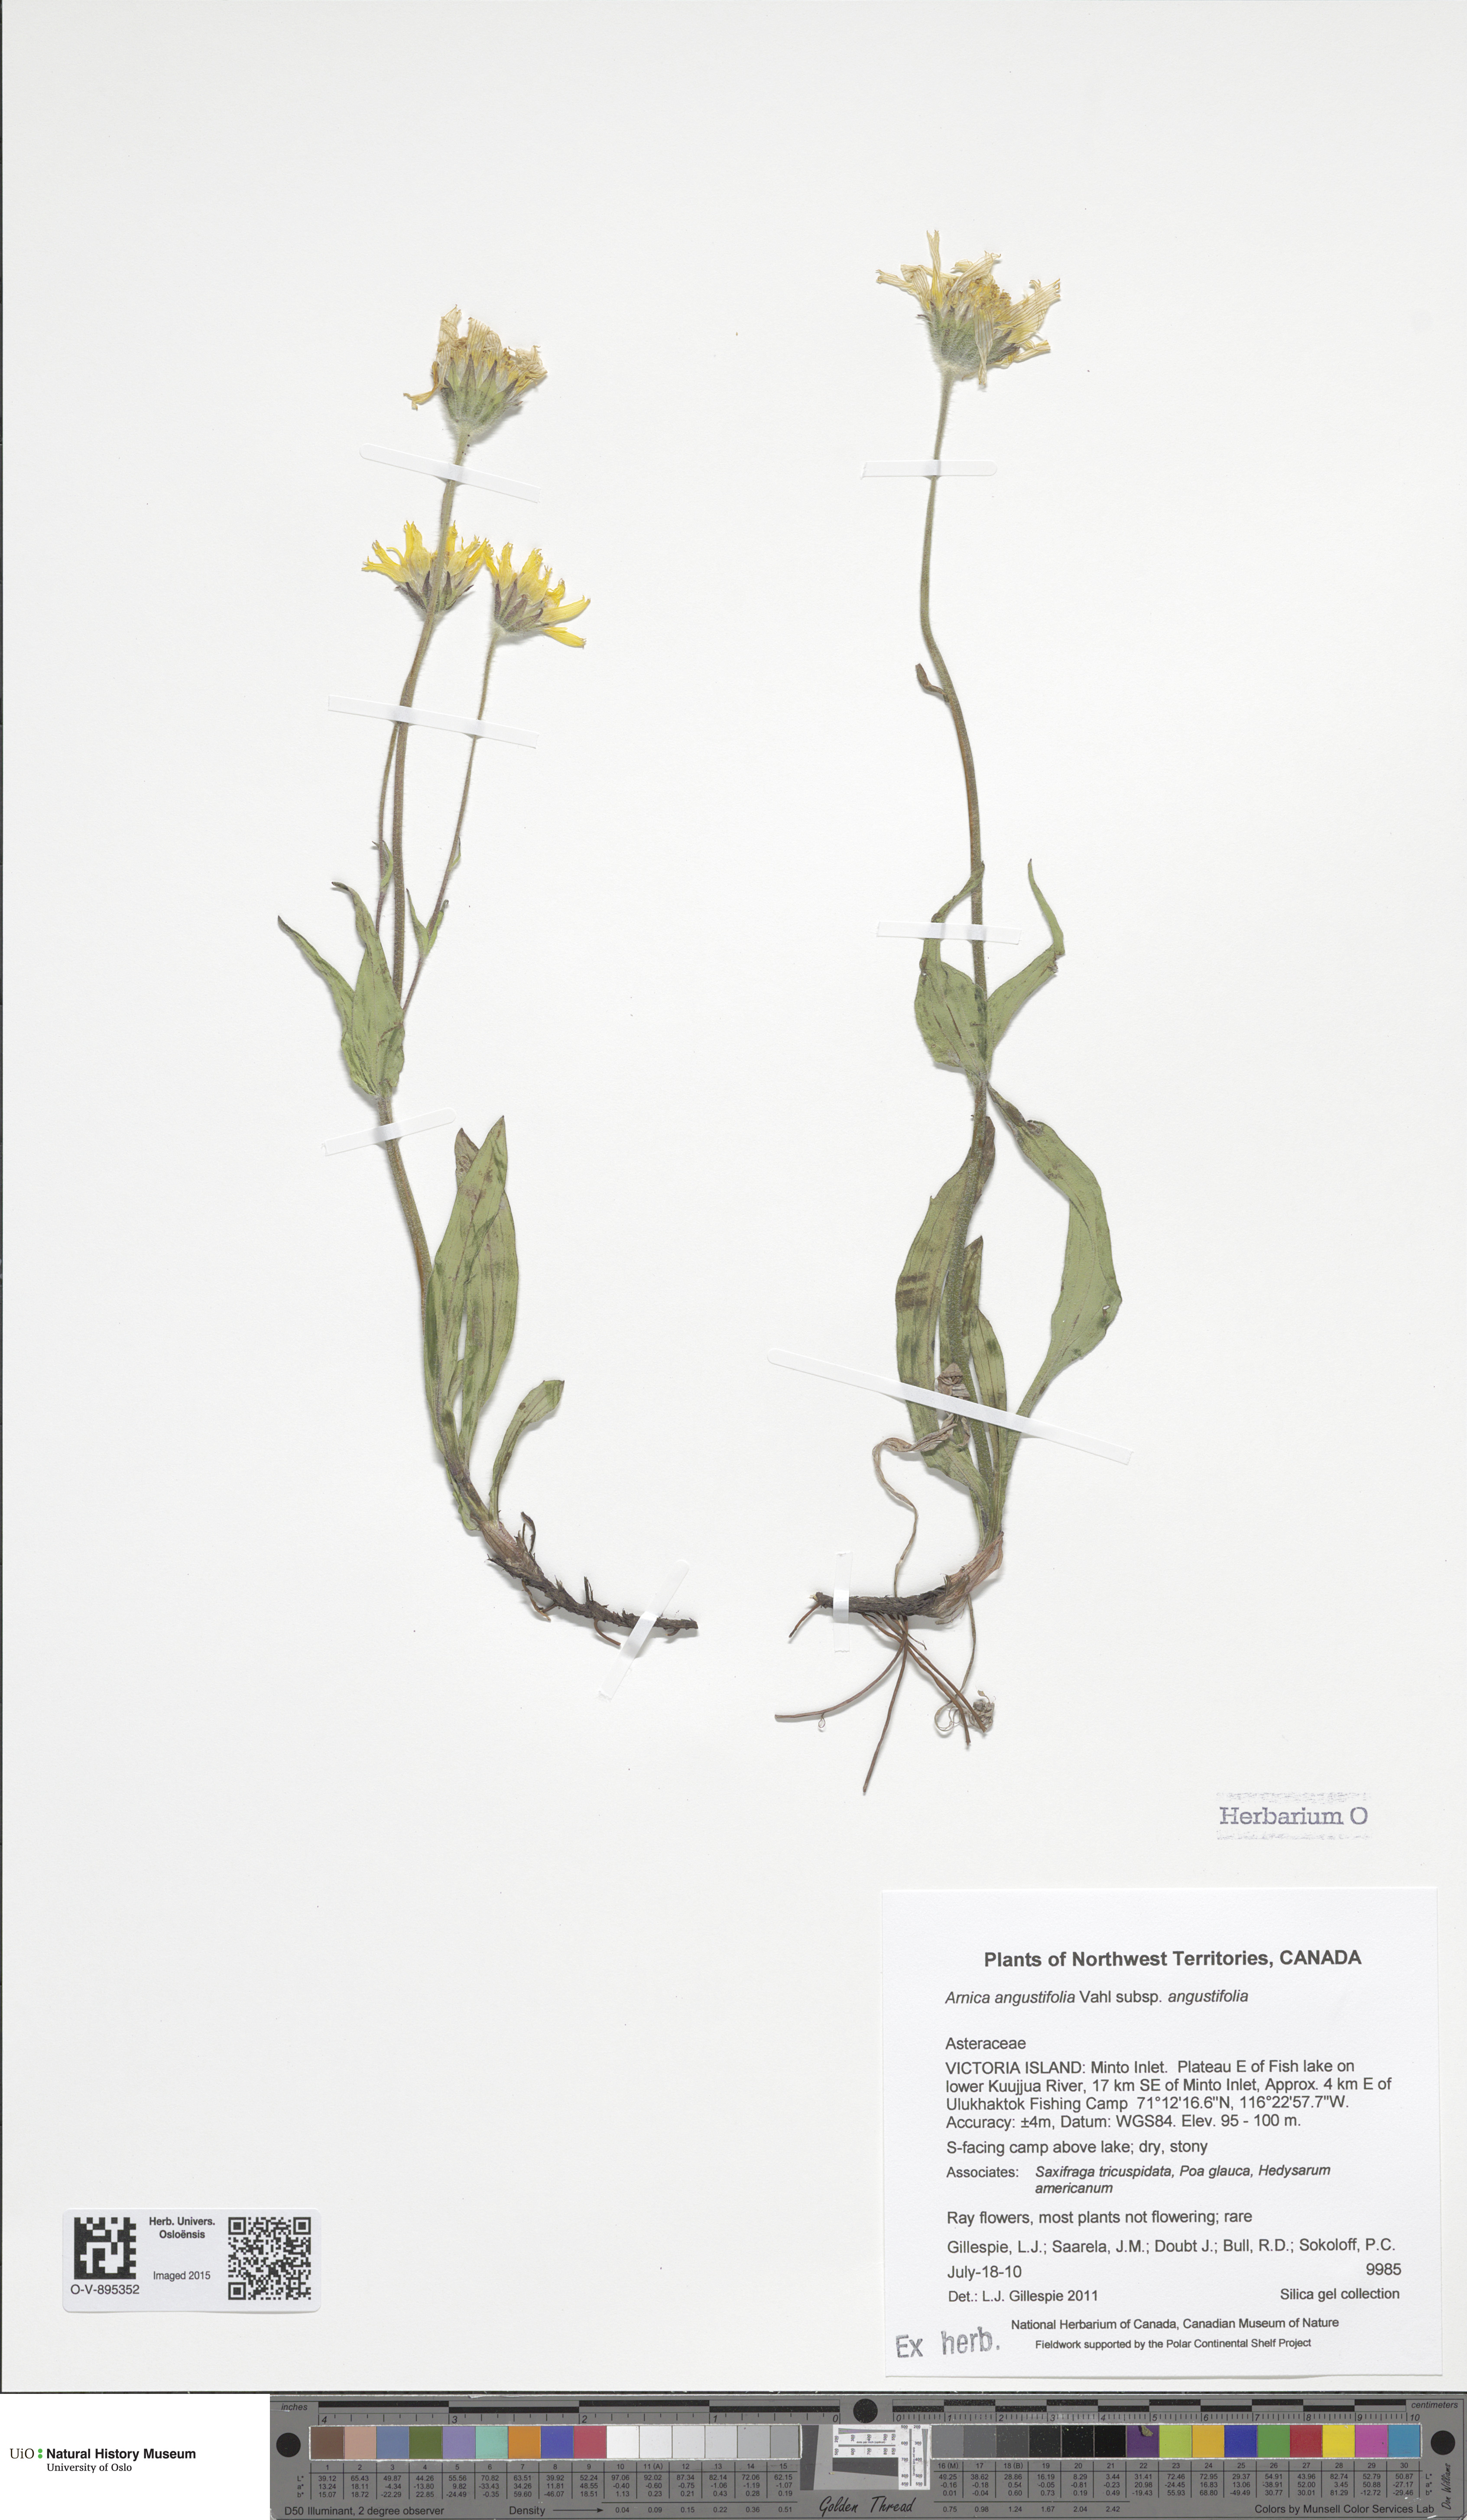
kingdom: Plantae
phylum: Tracheophyta
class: Magnoliopsida
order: Asterales
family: Asteraceae
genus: Arnica
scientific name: Arnica angustifolia
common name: Arctic arnica
